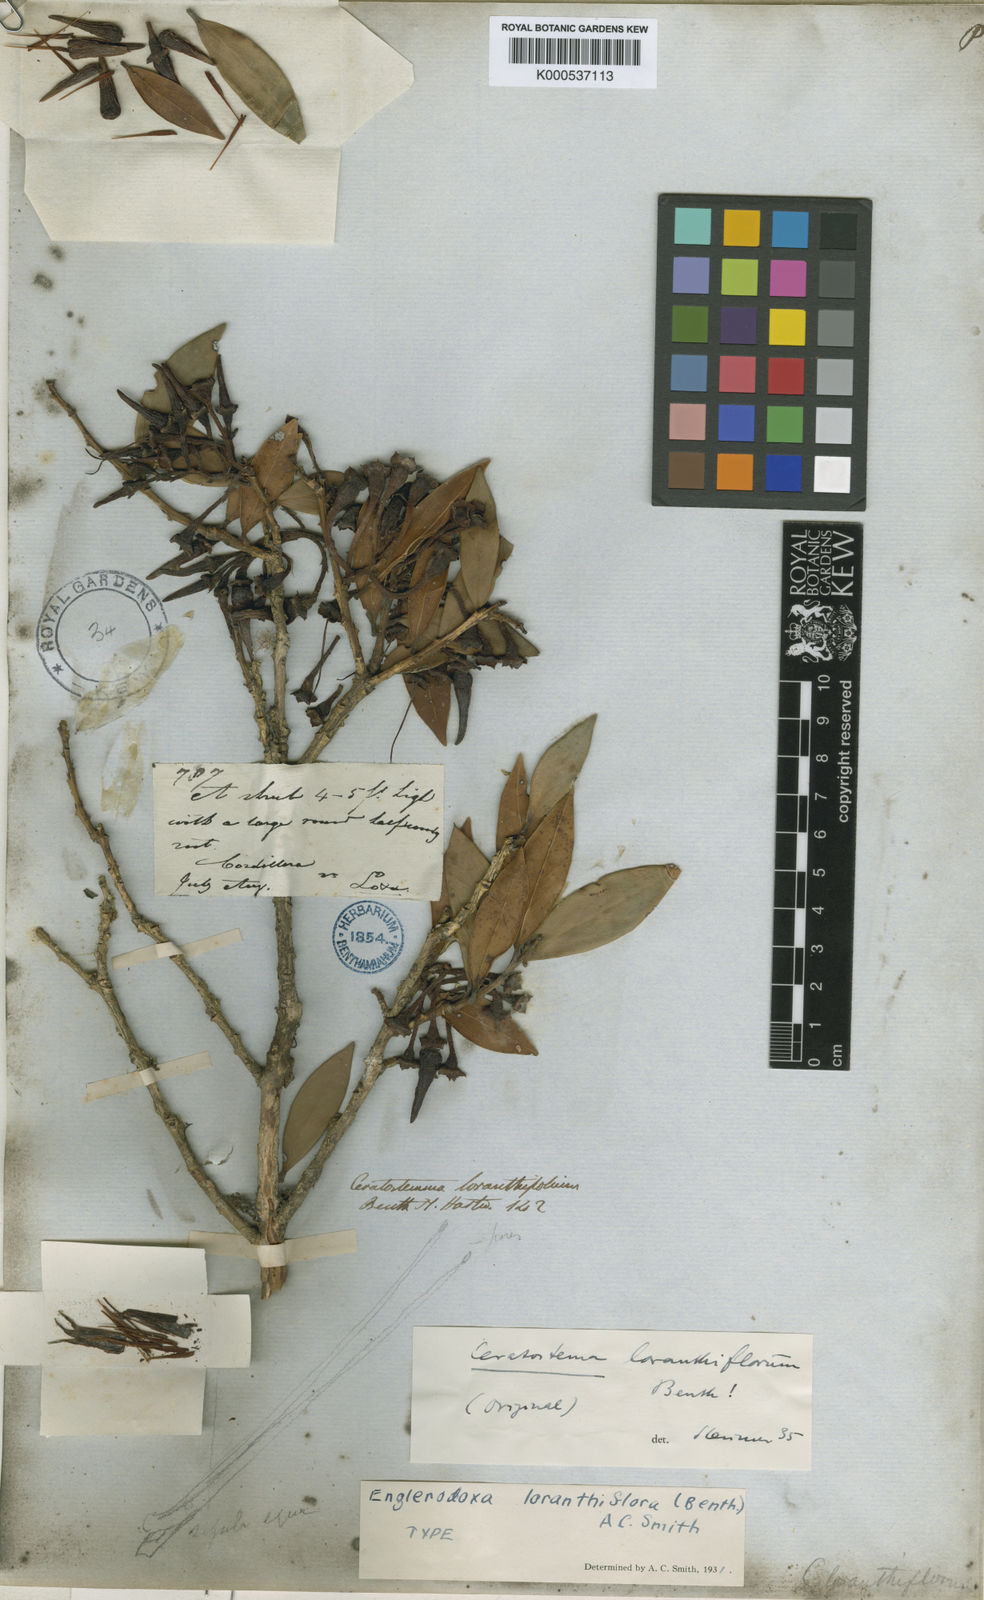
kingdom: Plantae
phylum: Tracheophyta
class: Magnoliopsida
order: Ericales
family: Ericaceae
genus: Ceratostema
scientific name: Ceratostema loranthiflorum
